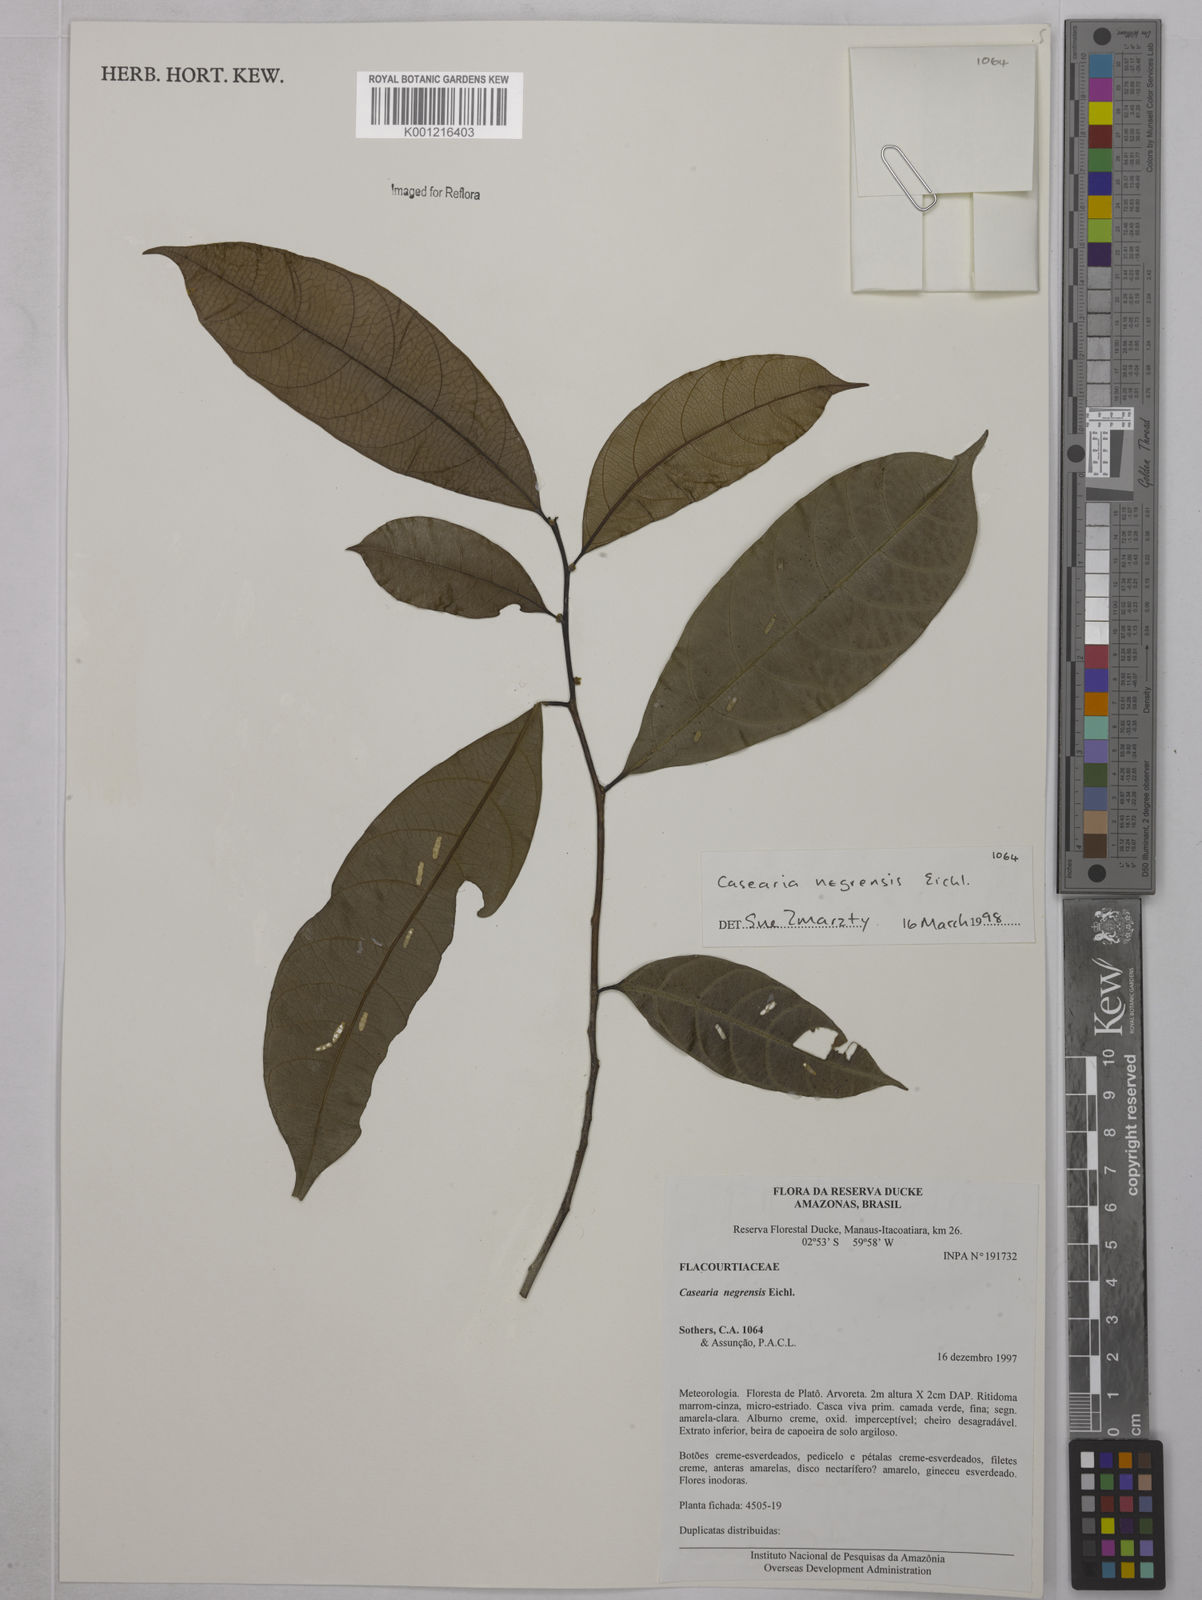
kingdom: Plantae
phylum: Tracheophyta
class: Magnoliopsida
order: Malpighiales
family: Salicaceae
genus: Casearia
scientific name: Casearia negrensis
